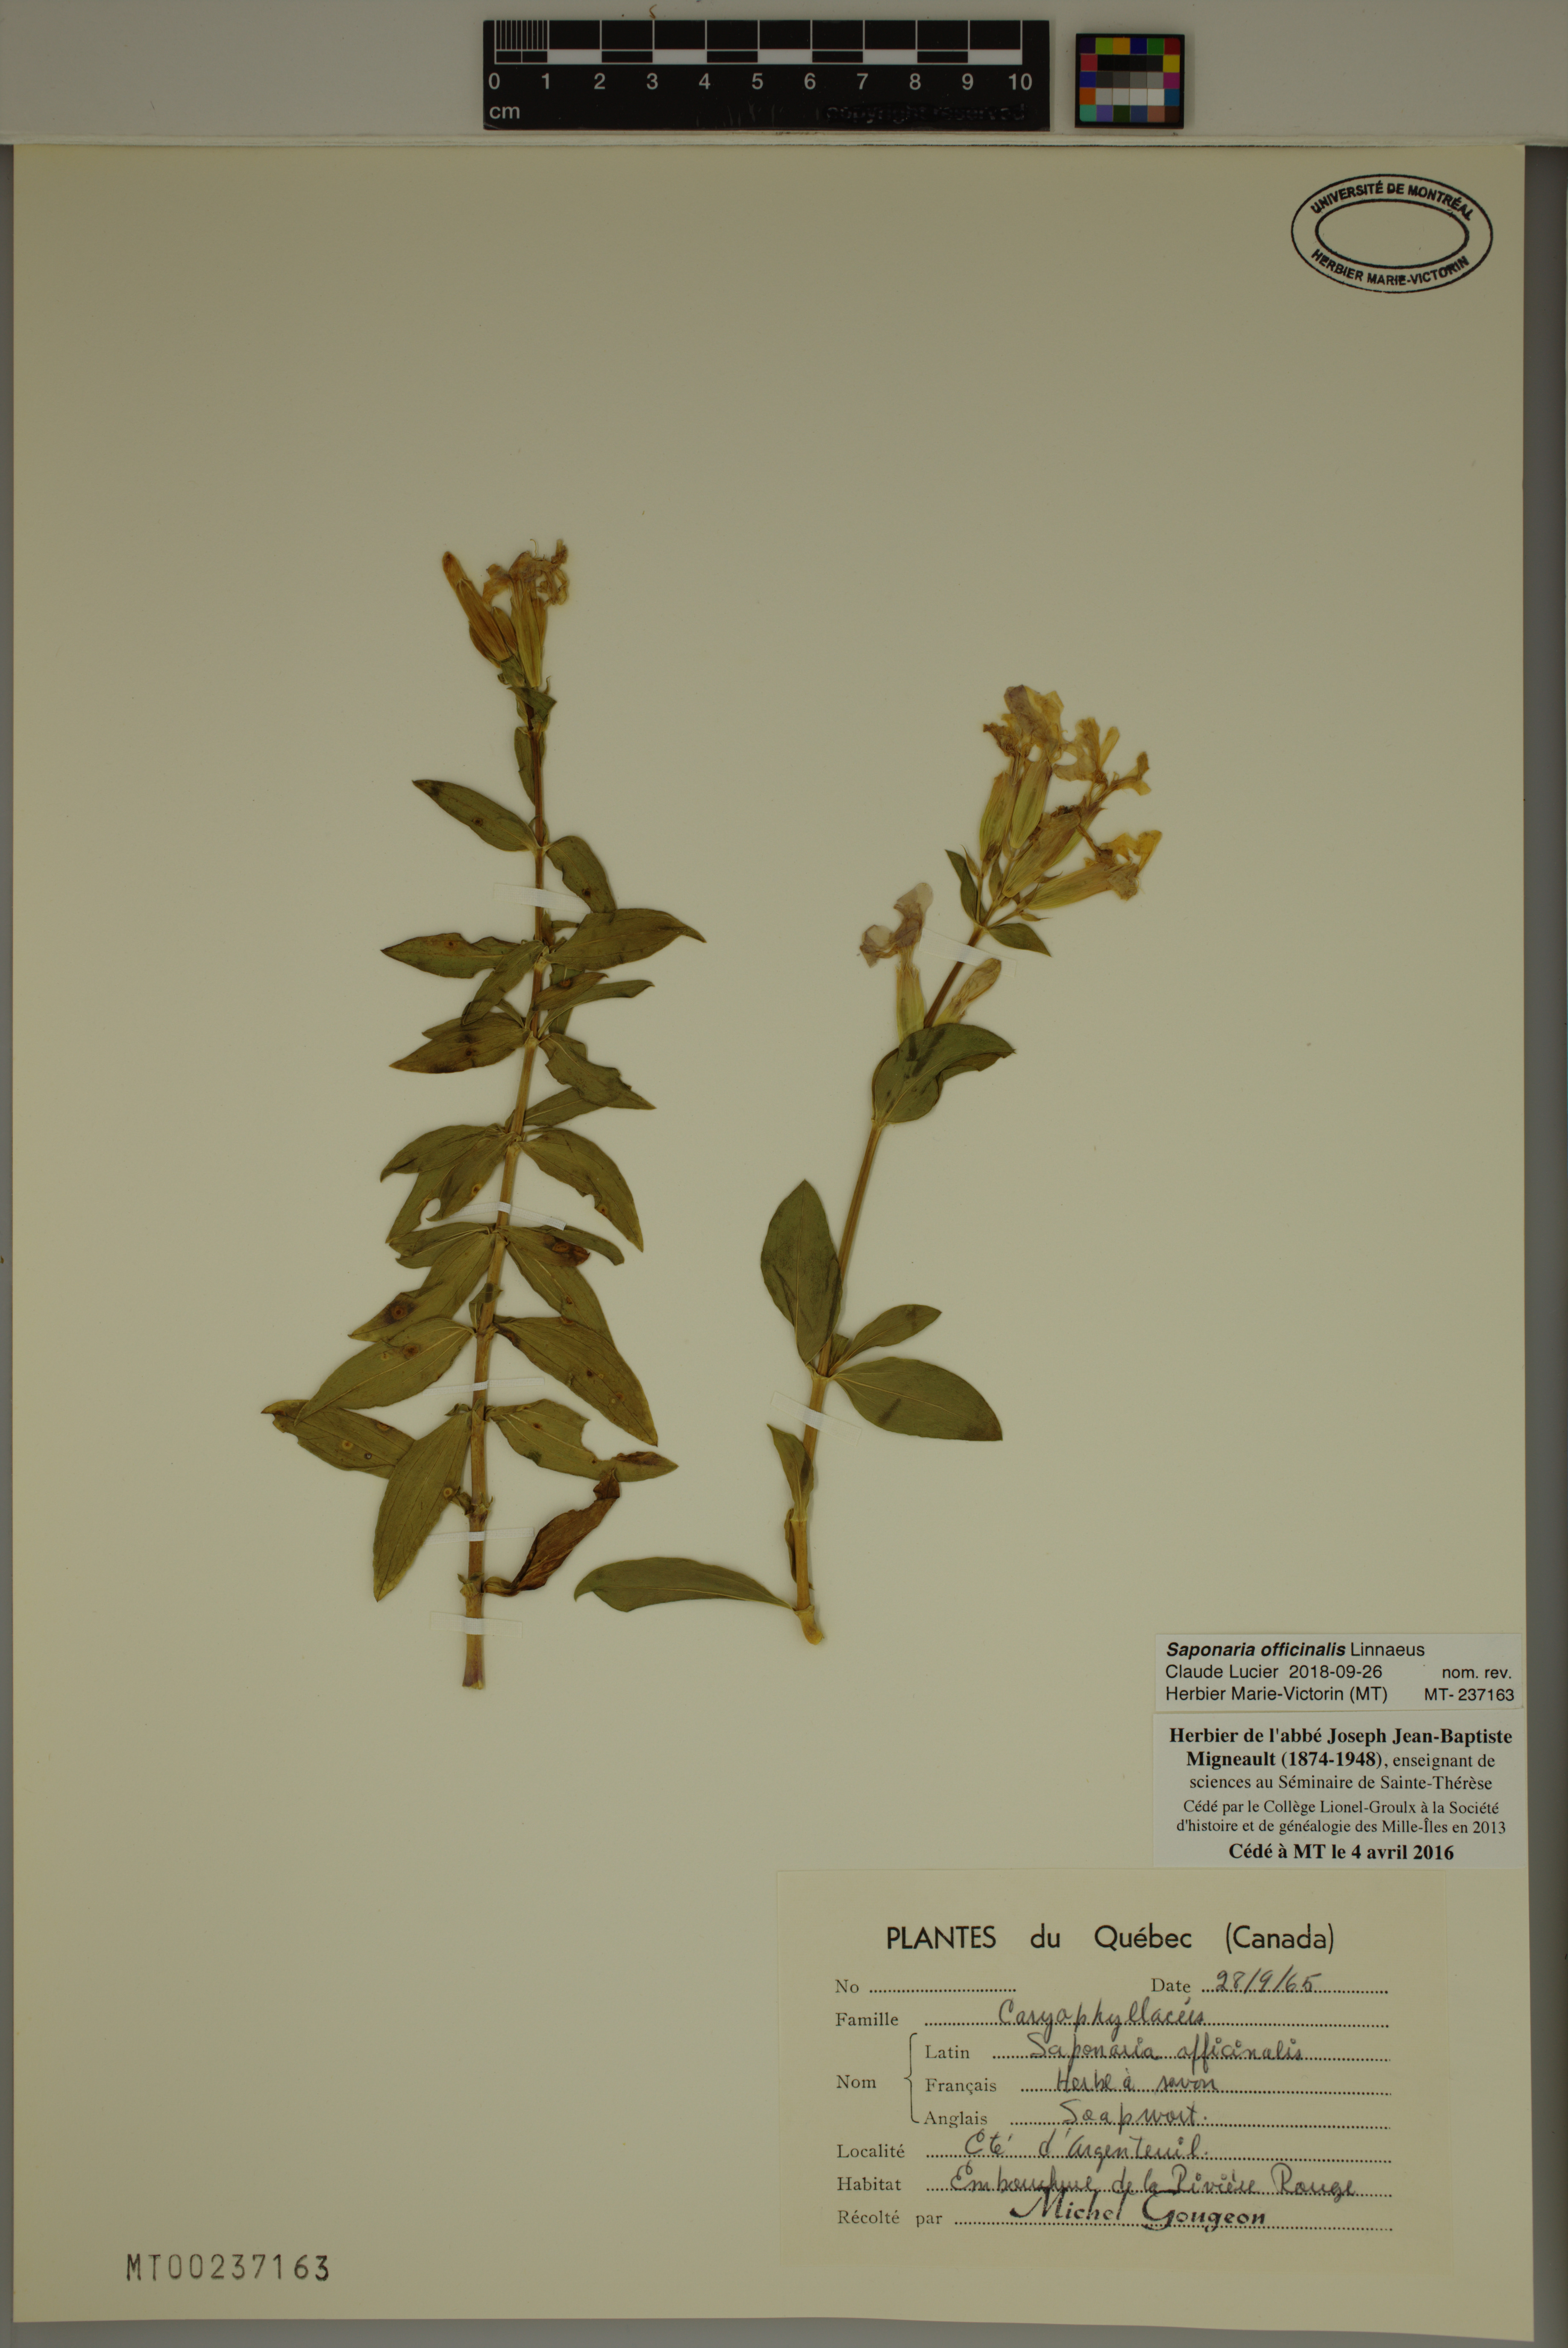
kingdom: Plantae
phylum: Tracheophyta
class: Magnoliopsida
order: Caryophyllales
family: Caryophyllaceae
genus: Saponaria
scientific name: Saponaria officinalis
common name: Soapwort
